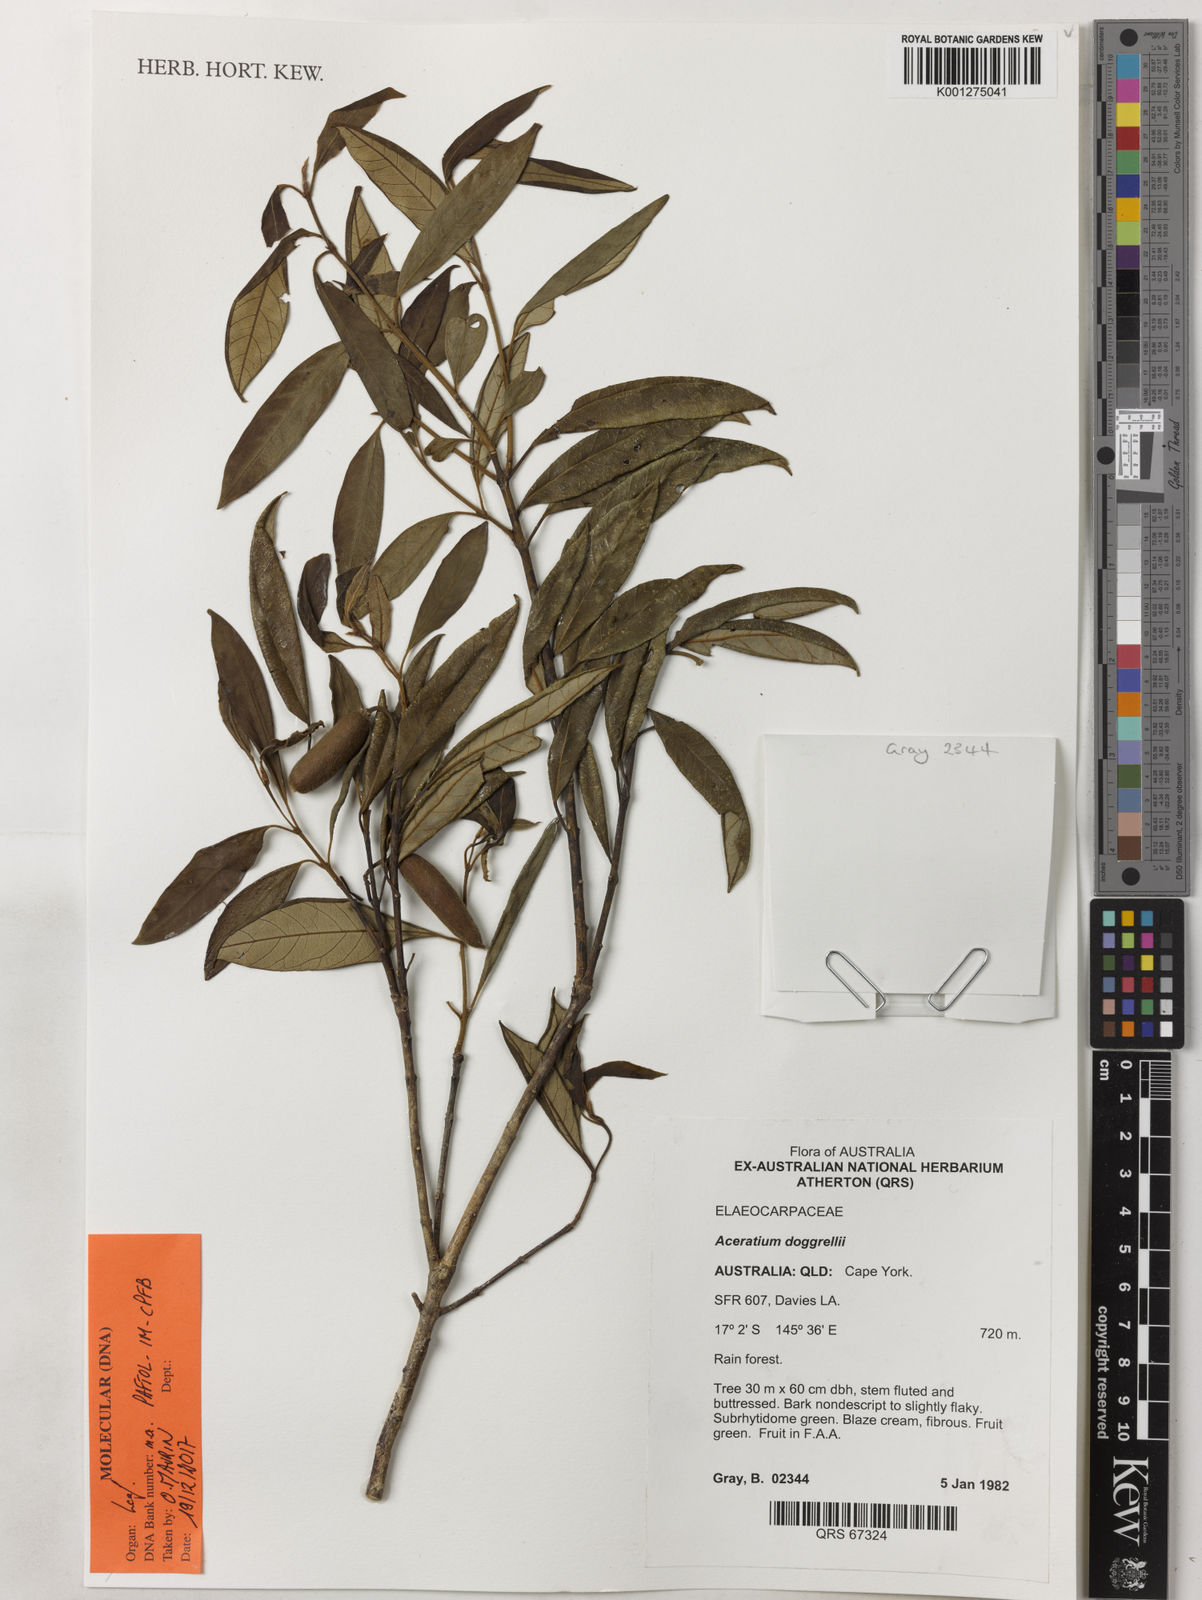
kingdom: Plantae
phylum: Tracheophyta
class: Magnoliopsida
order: Oxalidales
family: Elaeocarpaceae
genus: Aceratium
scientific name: Aceratium doggrellii
